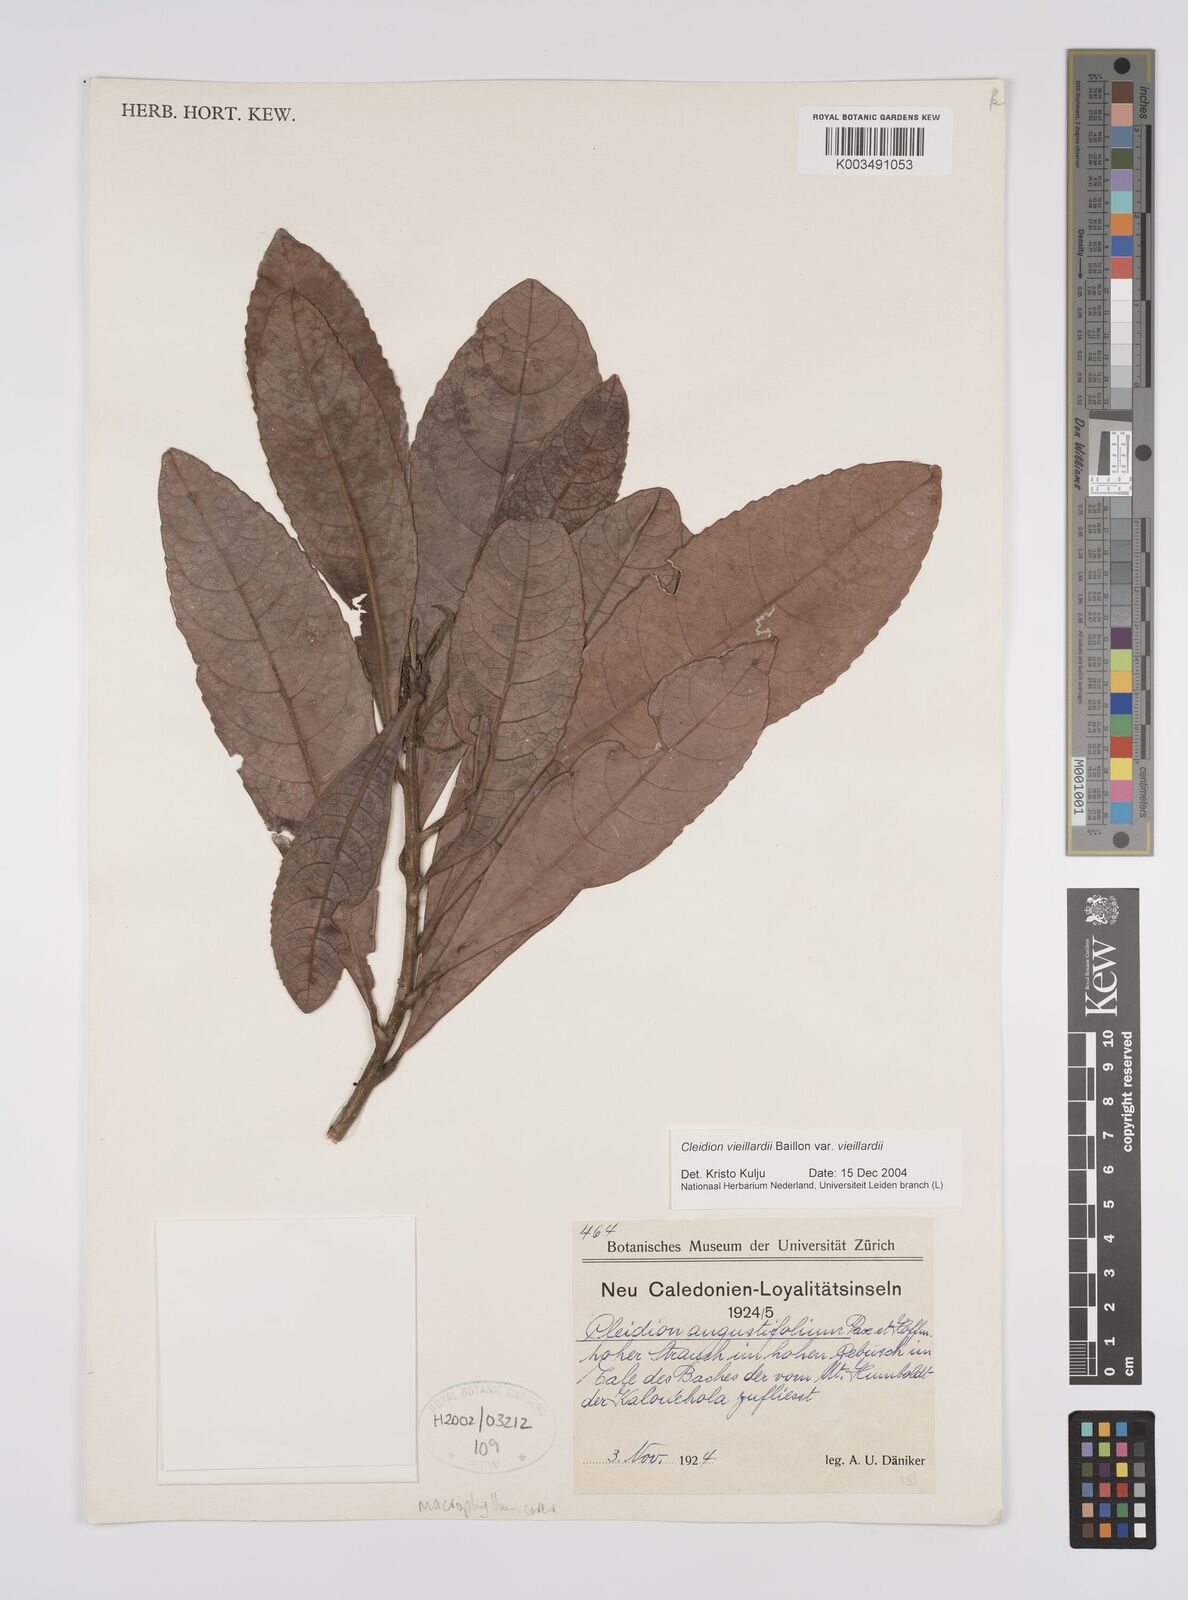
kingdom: Plantae
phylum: Tracheophyta
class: Magnoliopsida
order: Malpighiales
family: Euphorbiaceae
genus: Cleidion
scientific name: Cleidion vieillardii
